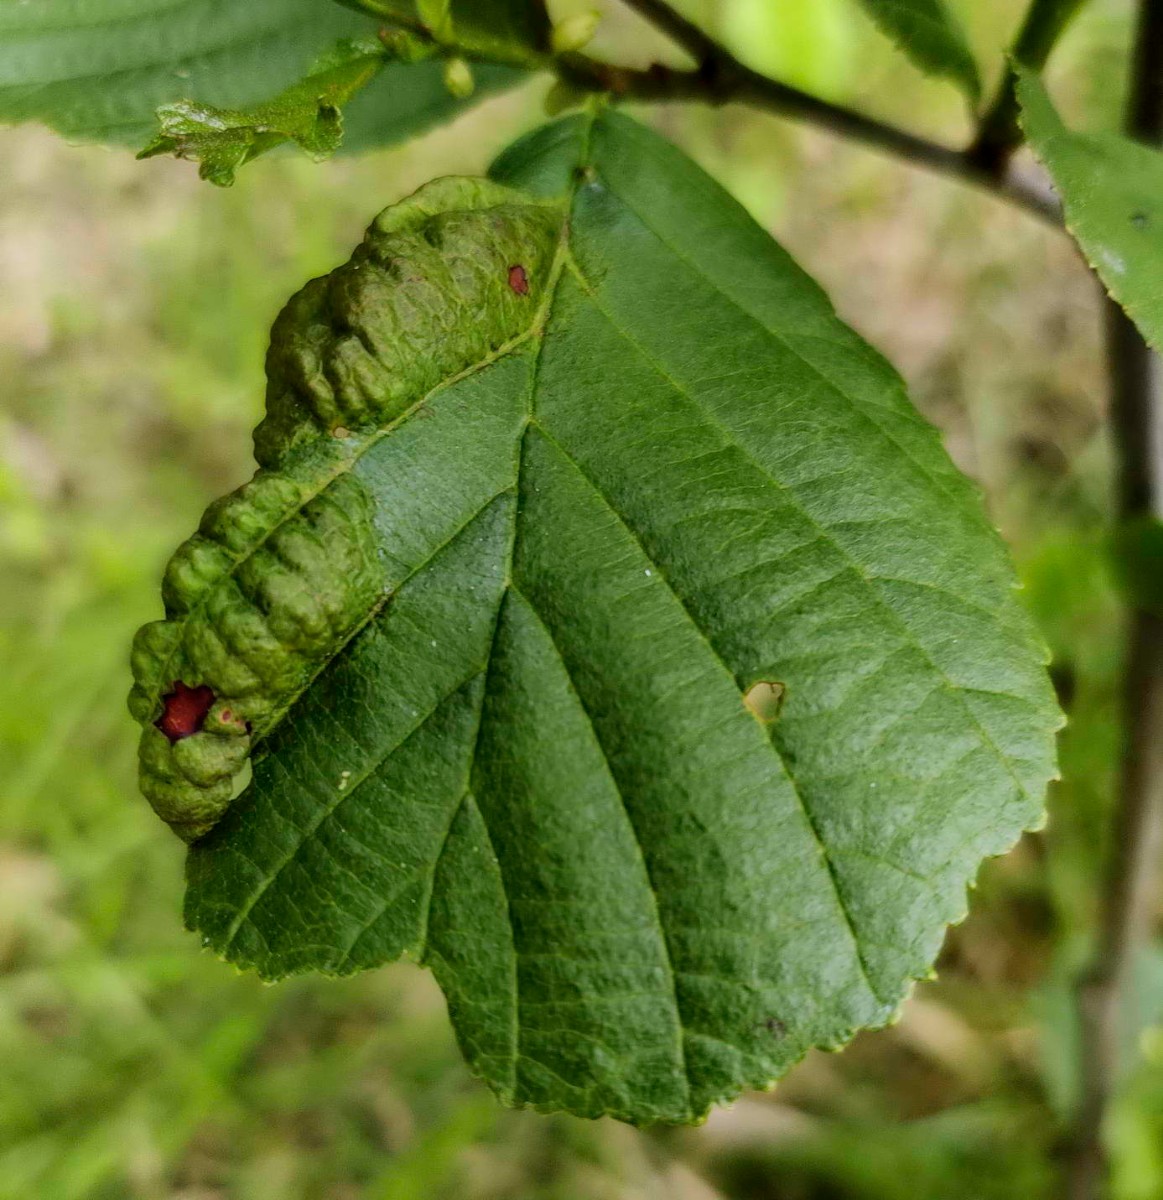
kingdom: Fungi
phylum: Ascomycota
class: Taphrinomycetes
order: Taphrinales
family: Taphrinaceae
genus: Taphrina
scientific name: Taphrina tosquinetii
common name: Alder wrinkle
